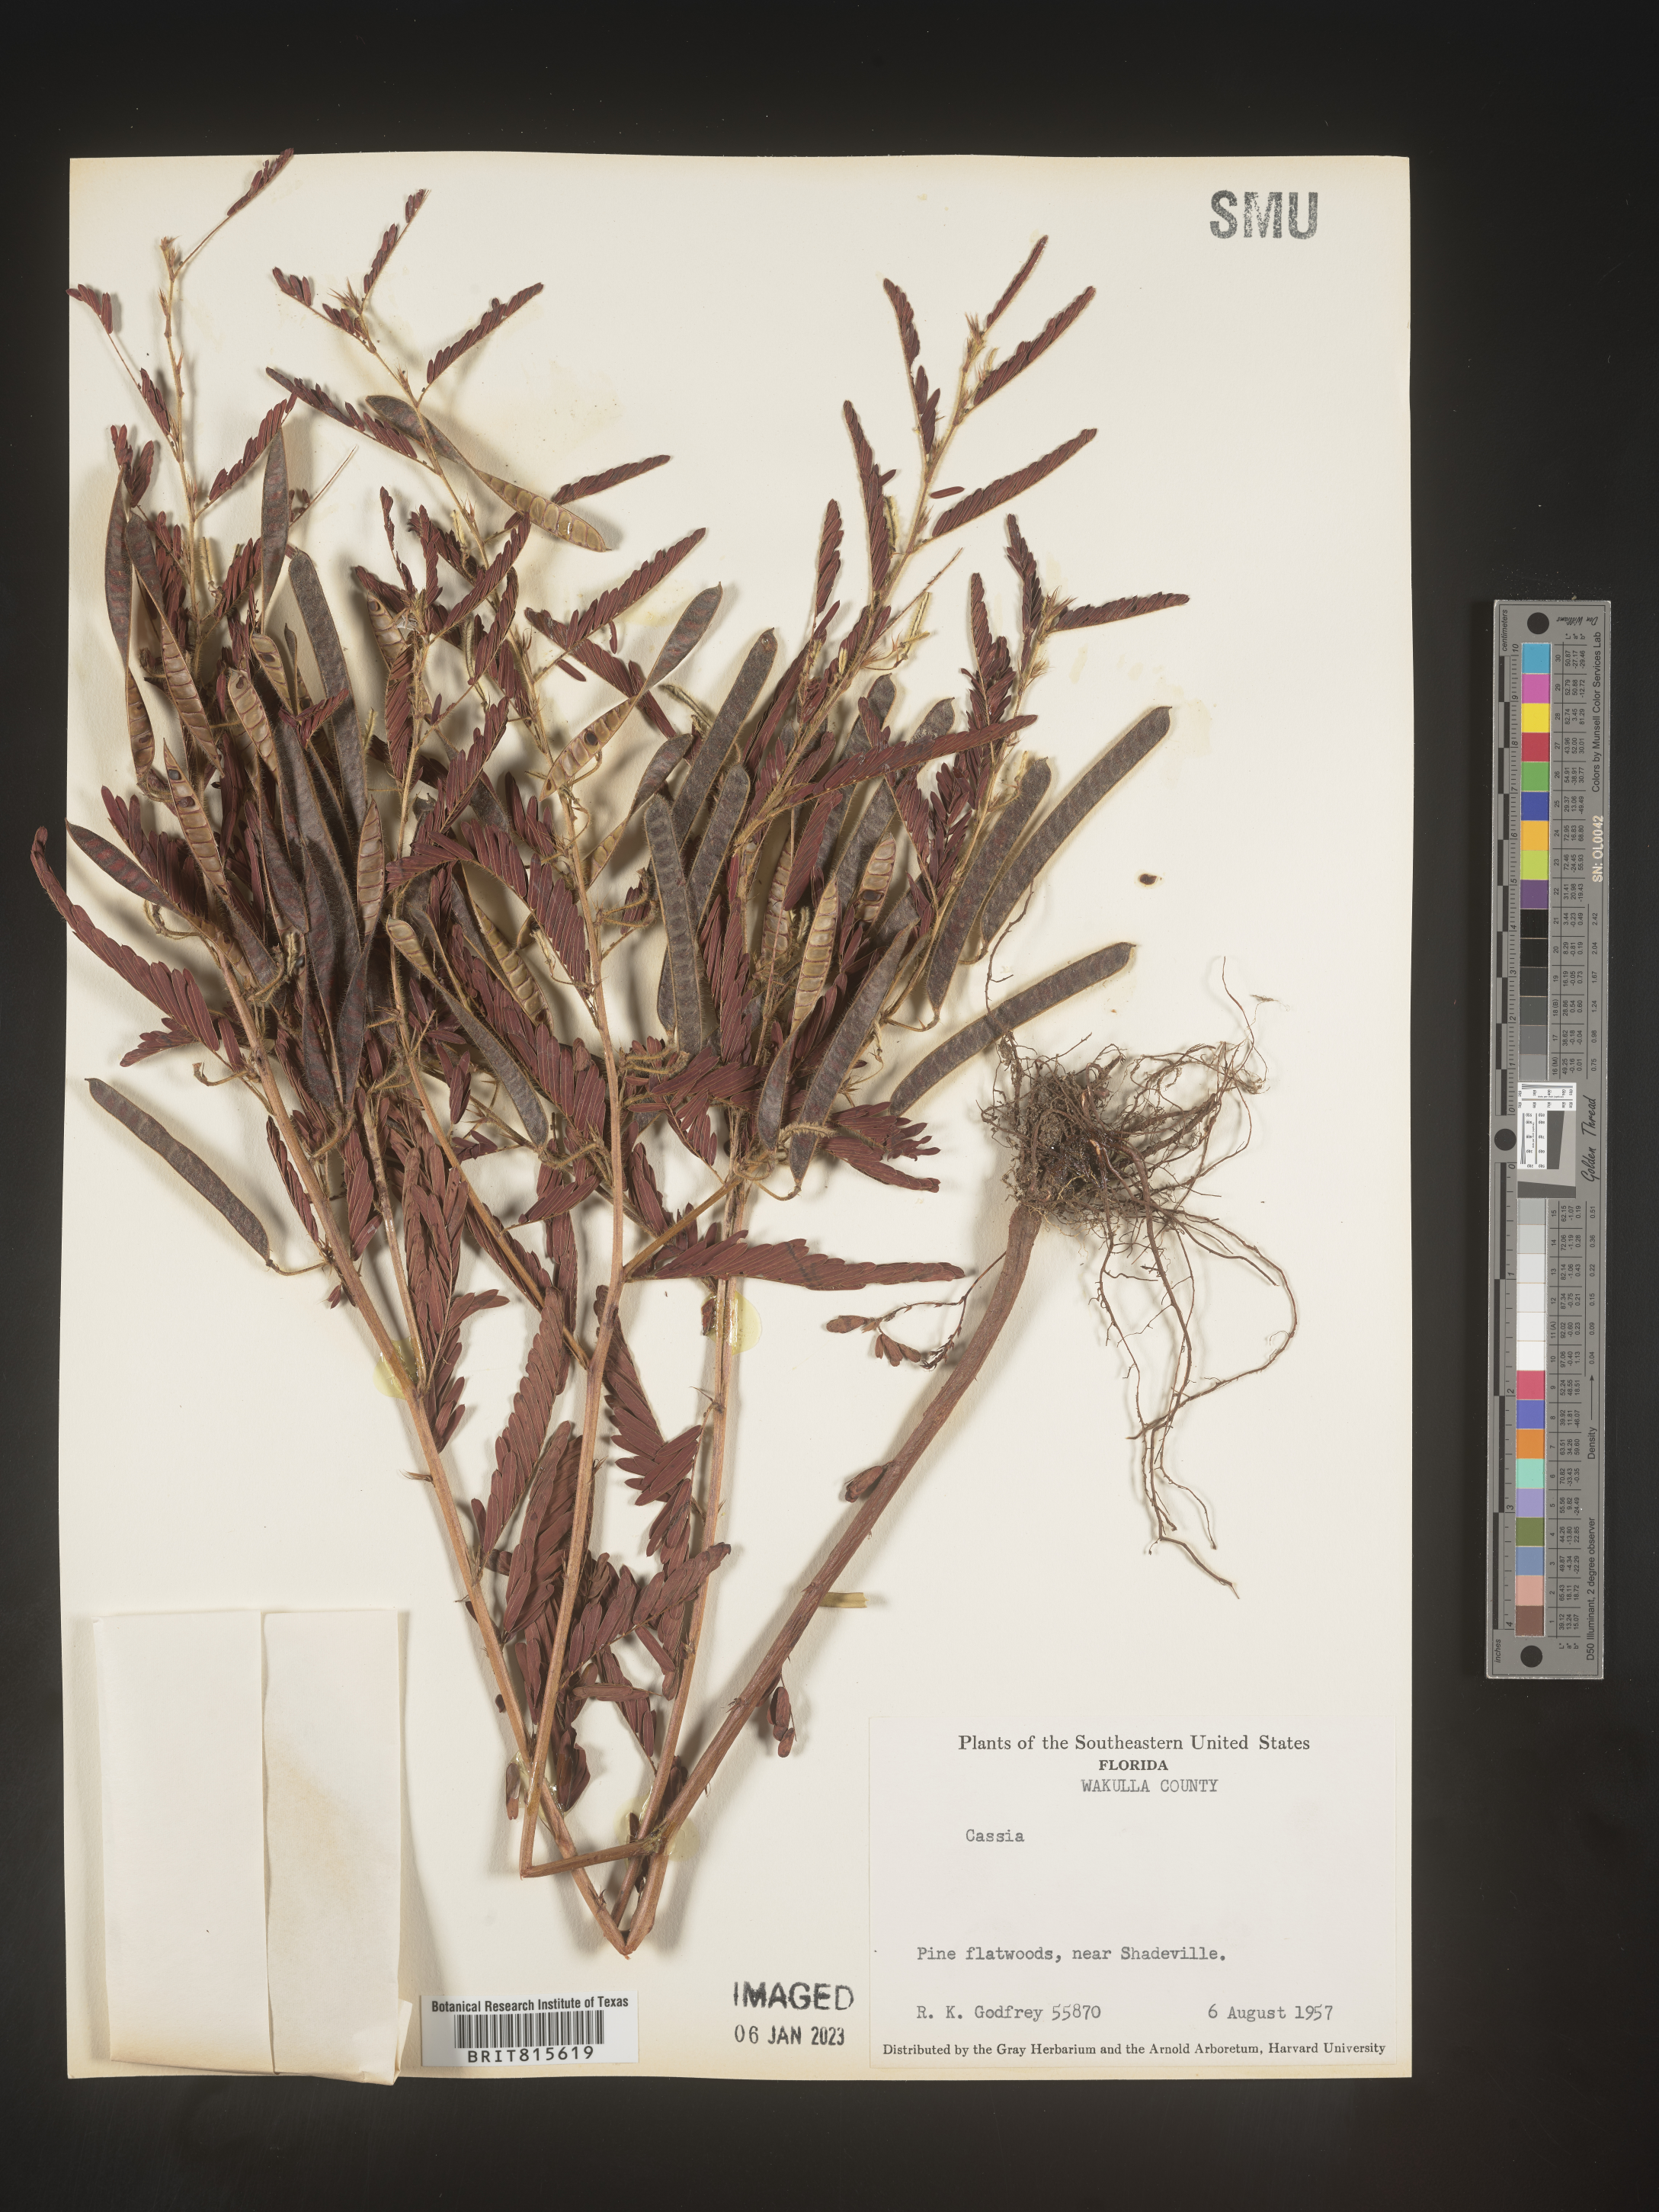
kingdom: Plantae
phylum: Tracheophyta
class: Magnoliopsida
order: Fabales
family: Fabaceae
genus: Cassia
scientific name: Cassia
